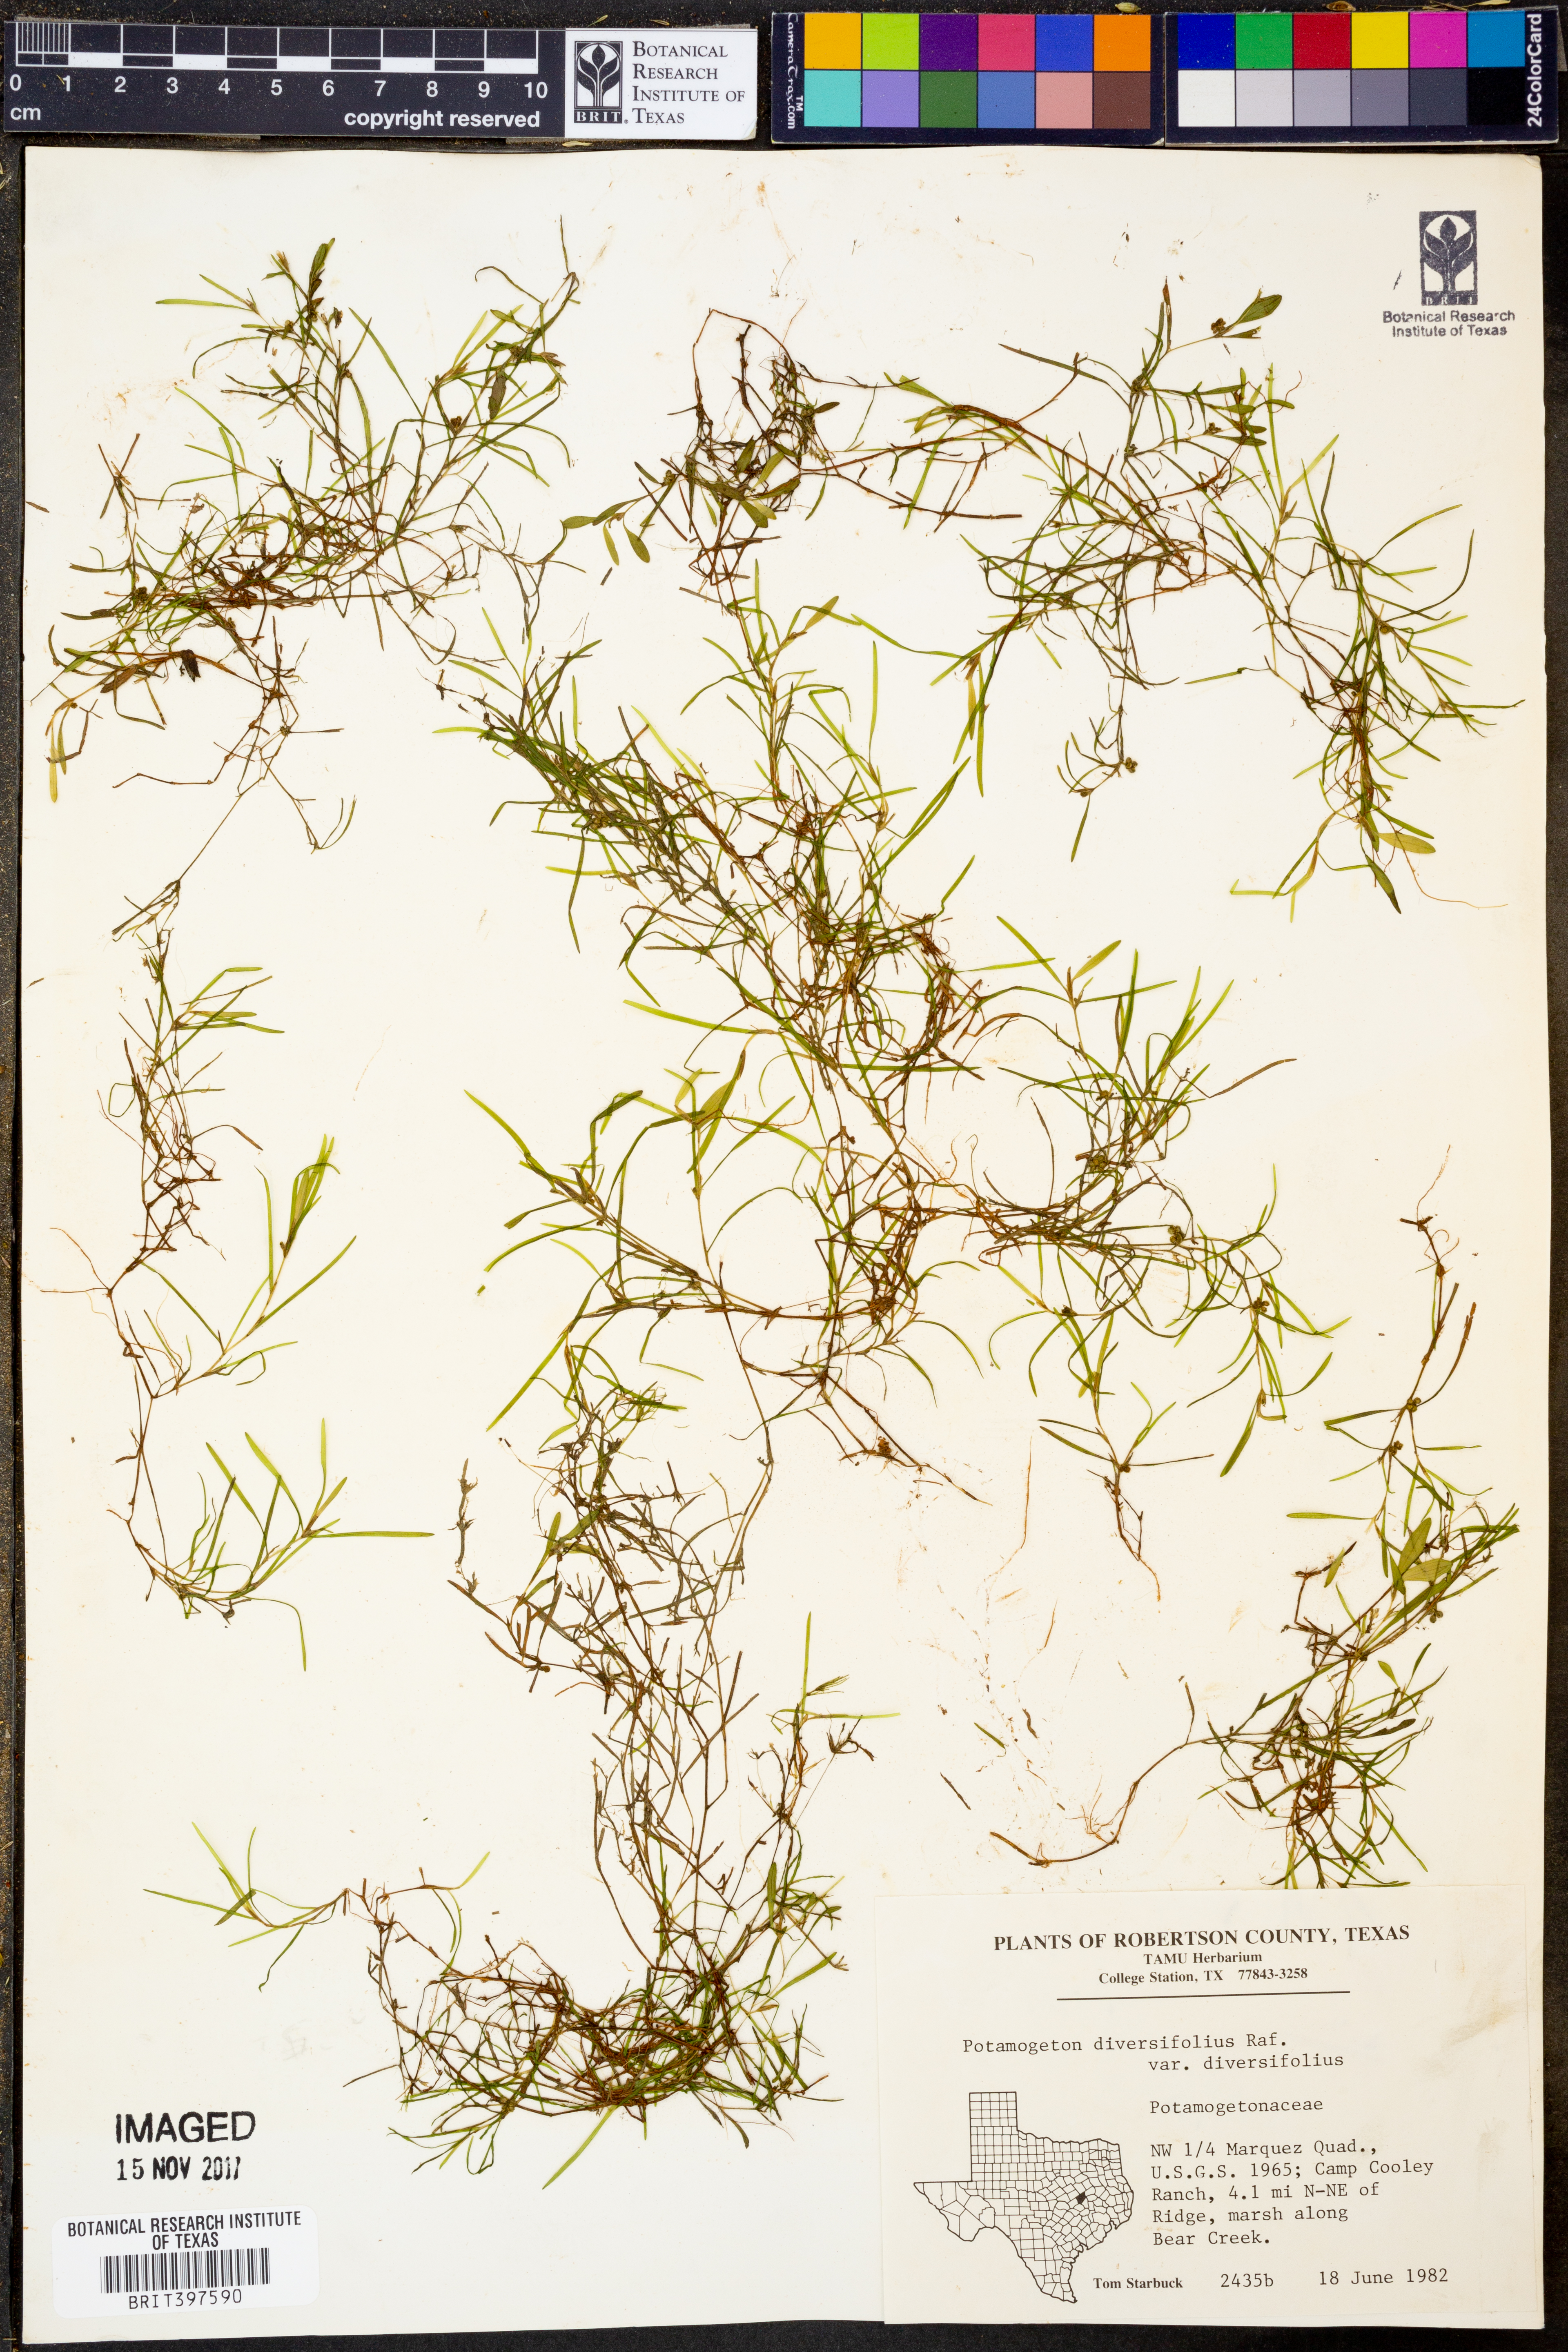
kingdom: Plantae
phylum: Tracheophyta
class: Liliopsida
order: Alismatales
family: Potamogetonaceae
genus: Potamogeton
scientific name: Potamogeton diversifolius
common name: Water-thread pondweed
